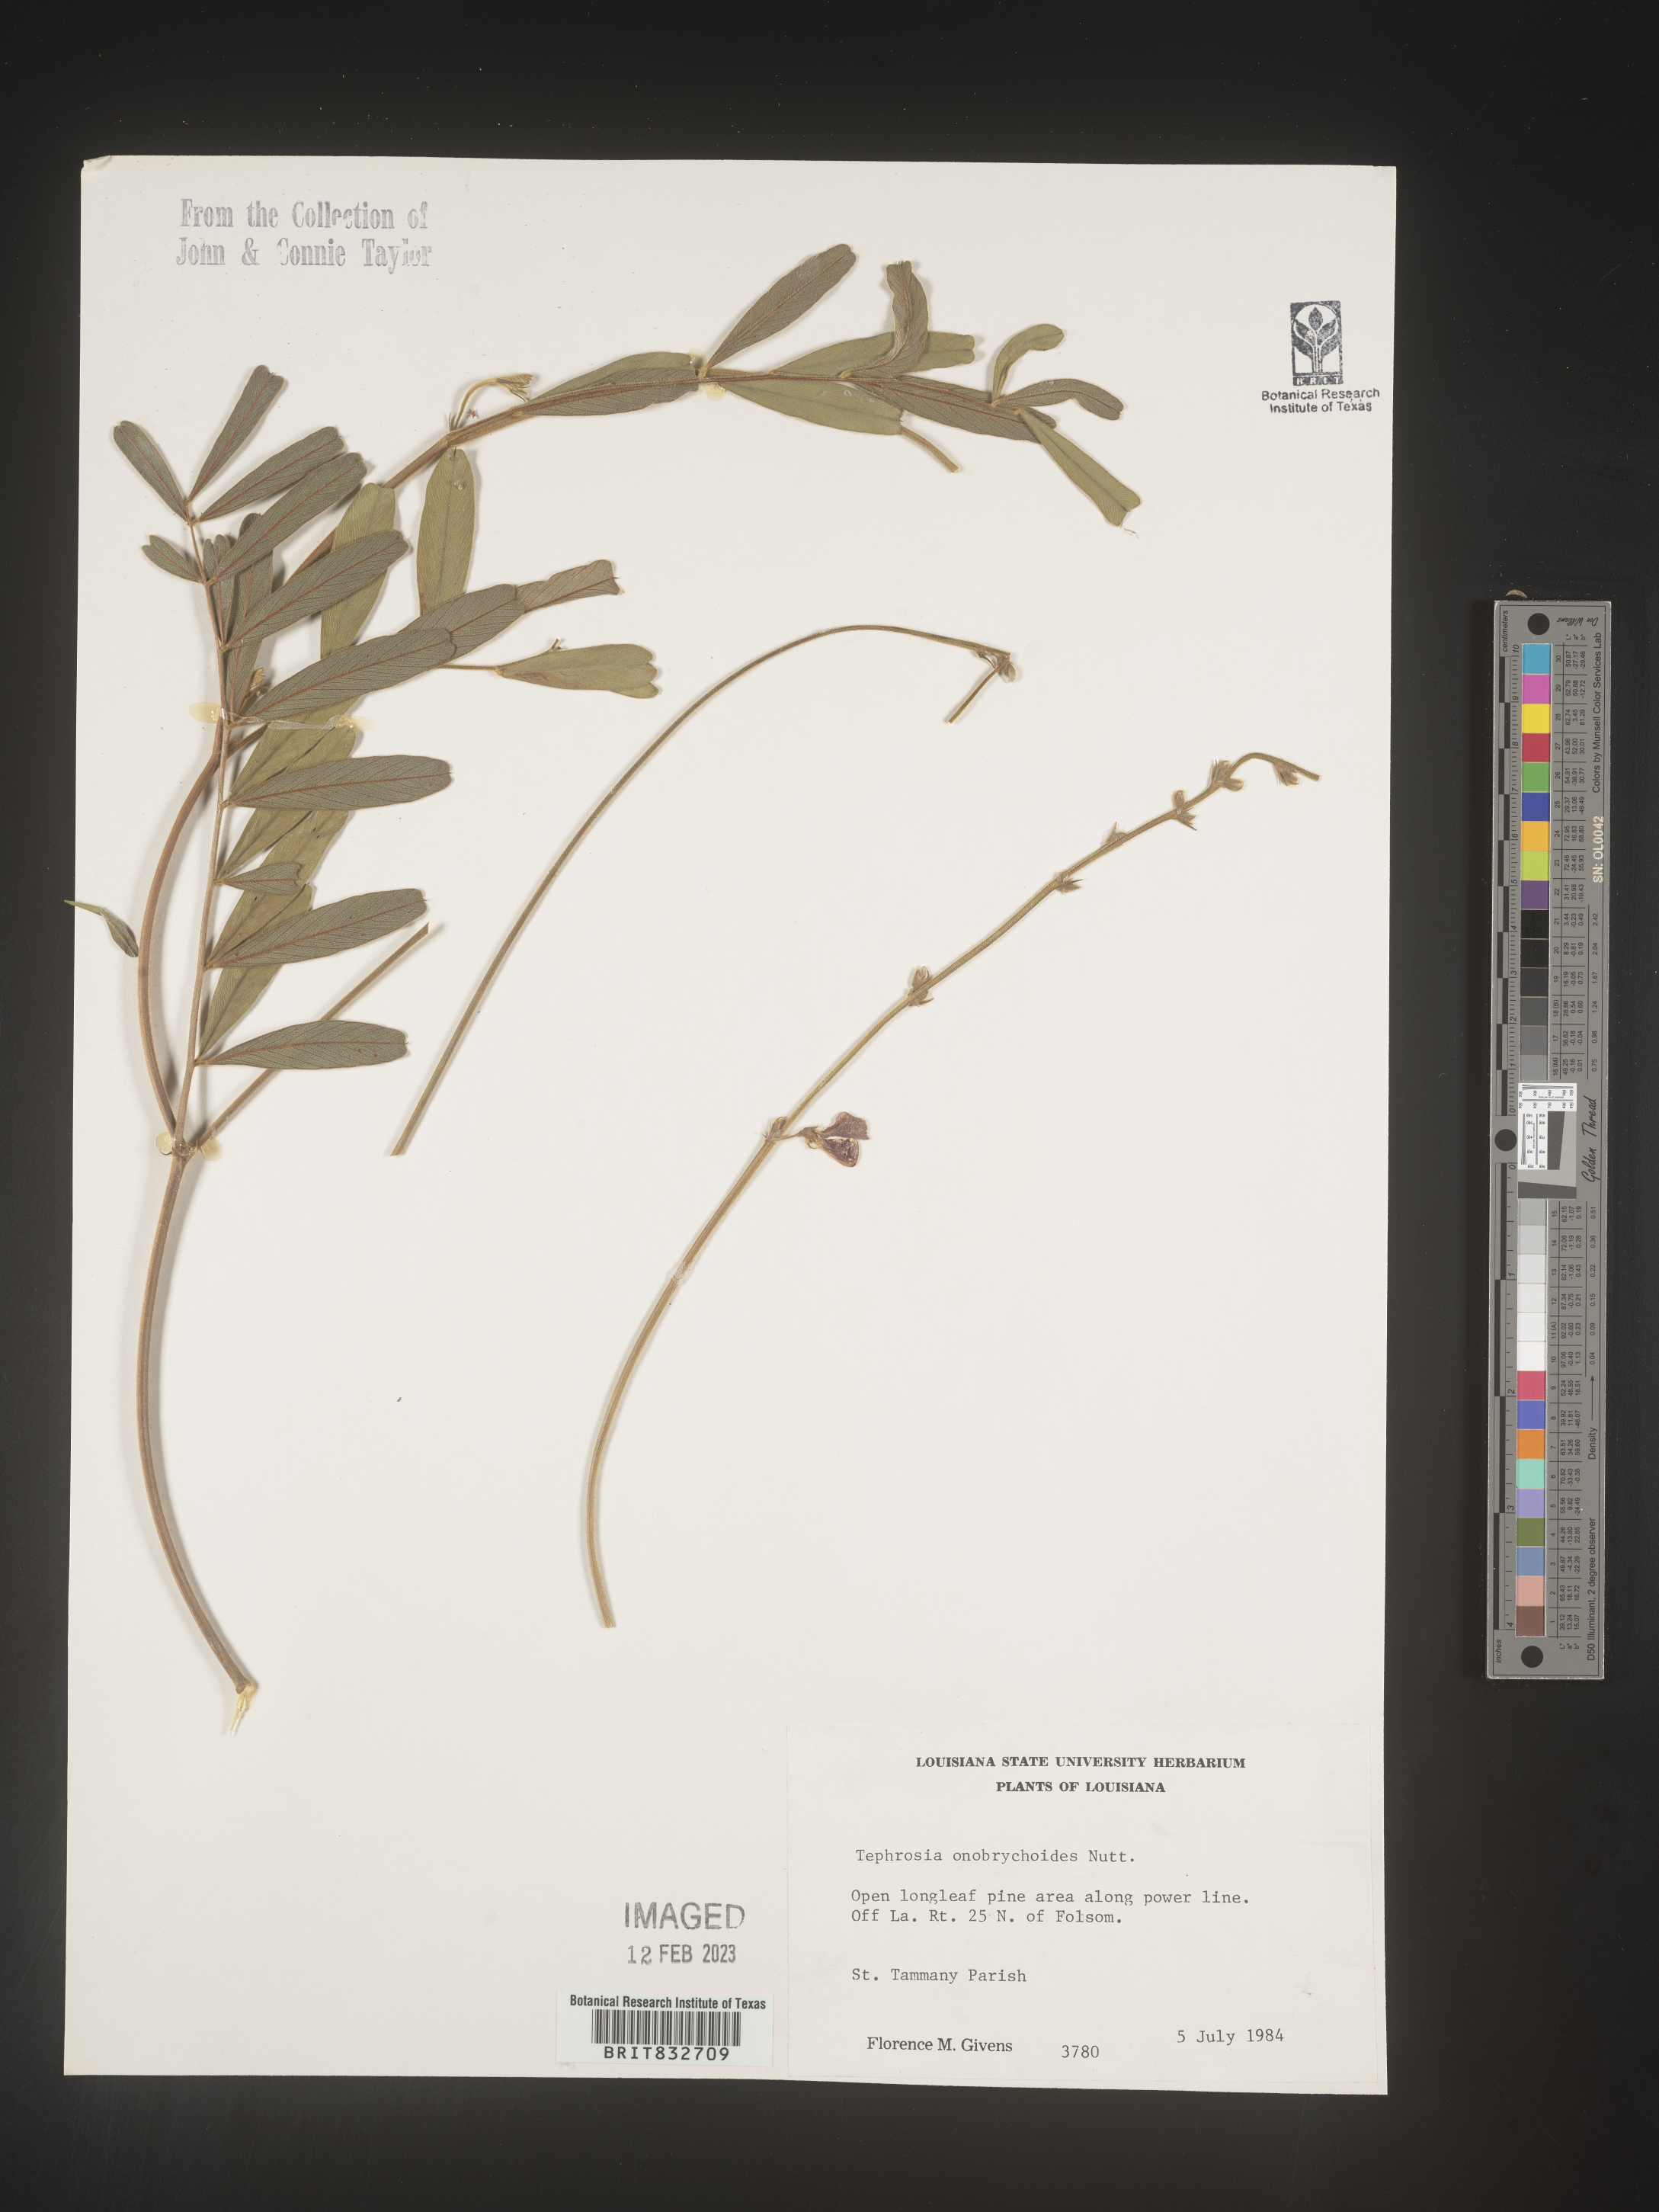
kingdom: Plantae
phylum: Tracheophyta
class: Magnoliopsida
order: Fabales
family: Fabaceae
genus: Tephrosia
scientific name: Tephrosia onobrychoides
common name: Multi-bloom hoary-pea
